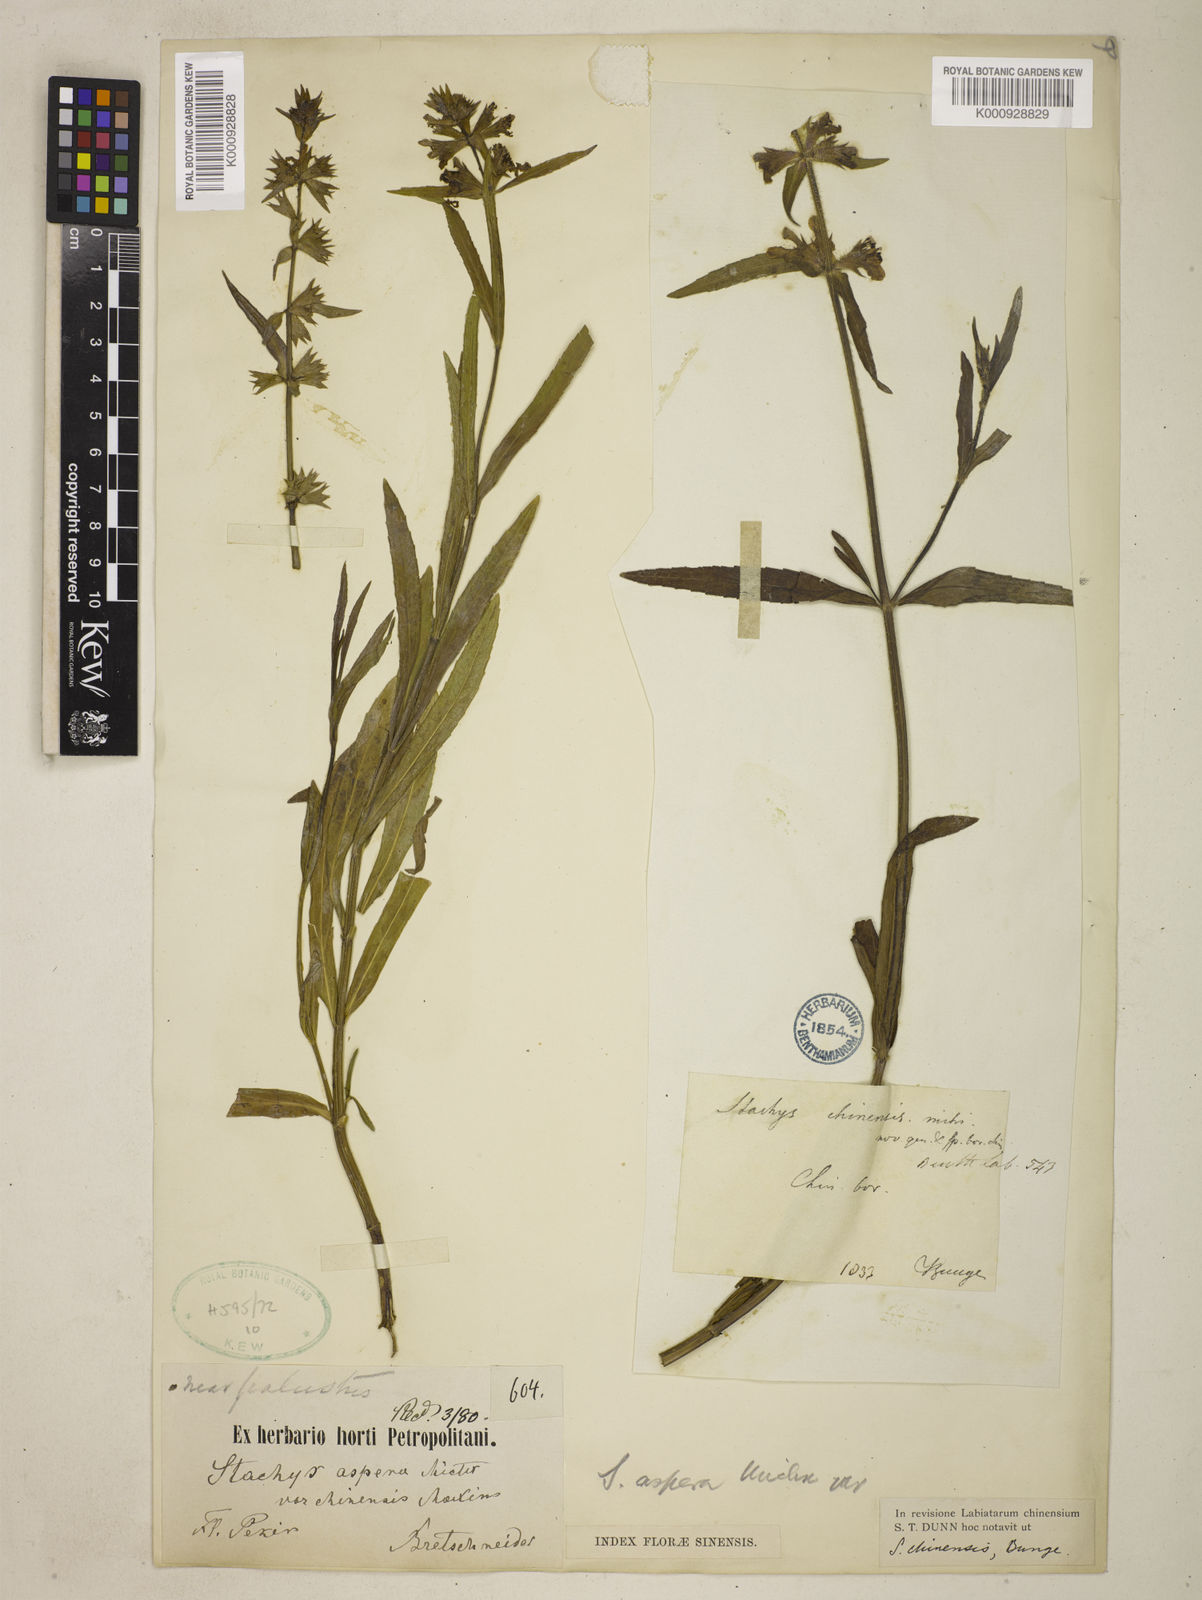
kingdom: Plantae
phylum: Tracheophyta
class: Magnoliopsida
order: Lamiales
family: Lamiaceae
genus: Stachys
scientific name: Stachys aspera
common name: Hyssopleaf hedgenettle
